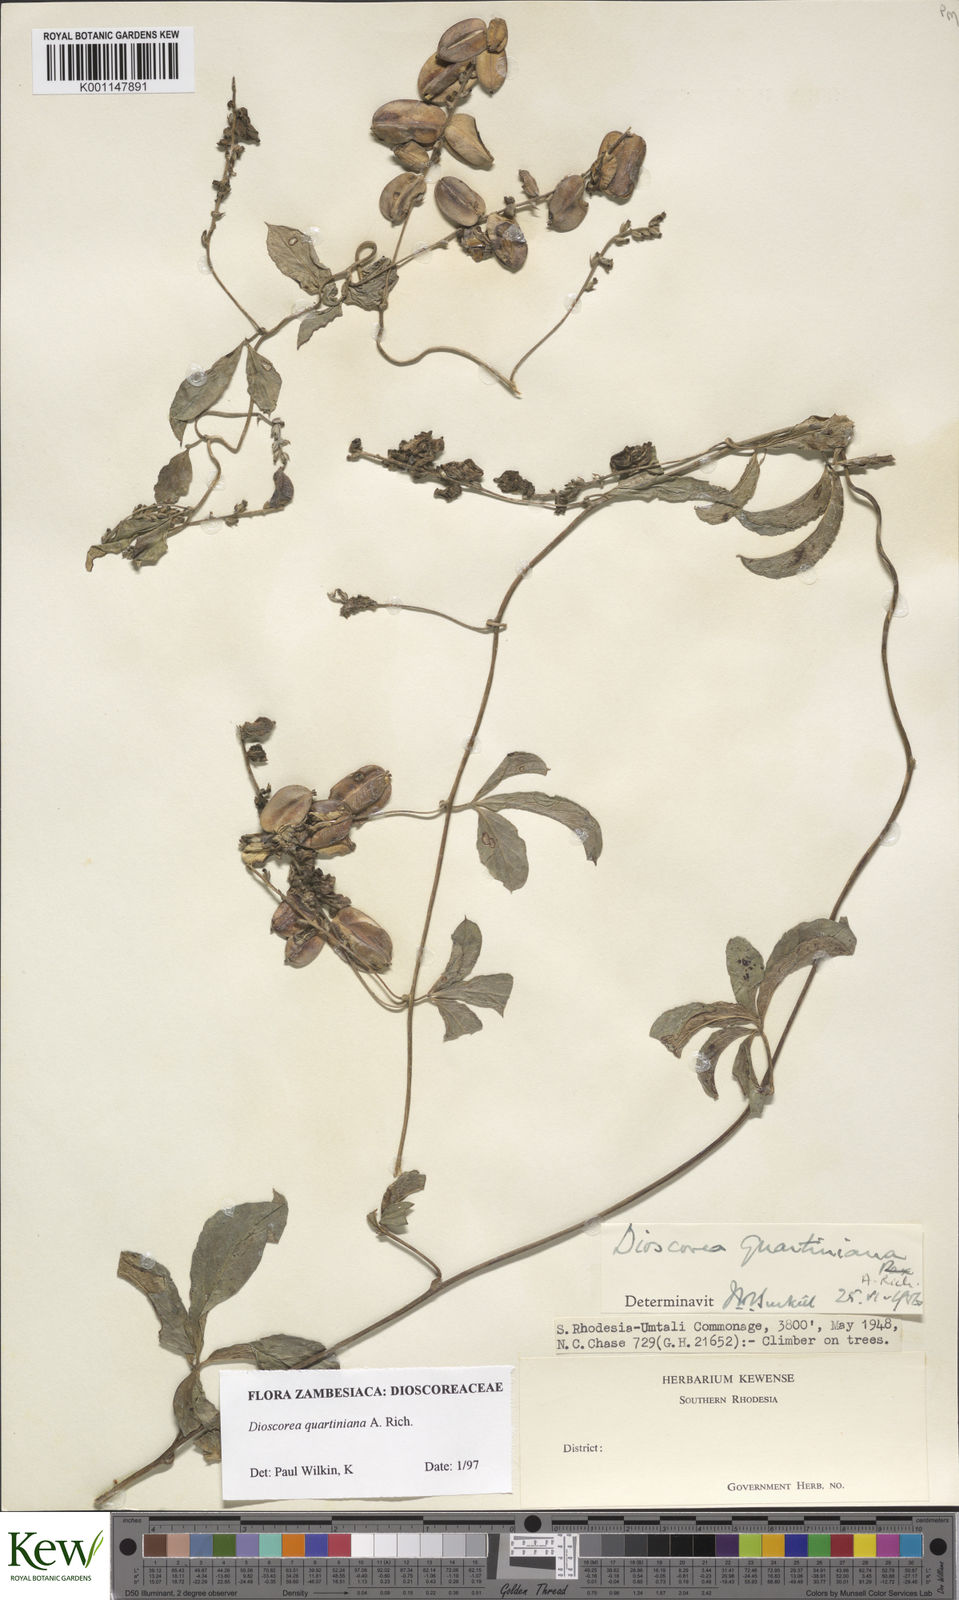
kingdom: Plantae
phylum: Tracheophyta
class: Liliopsida
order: Dioscoreales
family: Dioscoreaceae
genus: Dioscorea
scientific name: Dioscorea quartiniana
